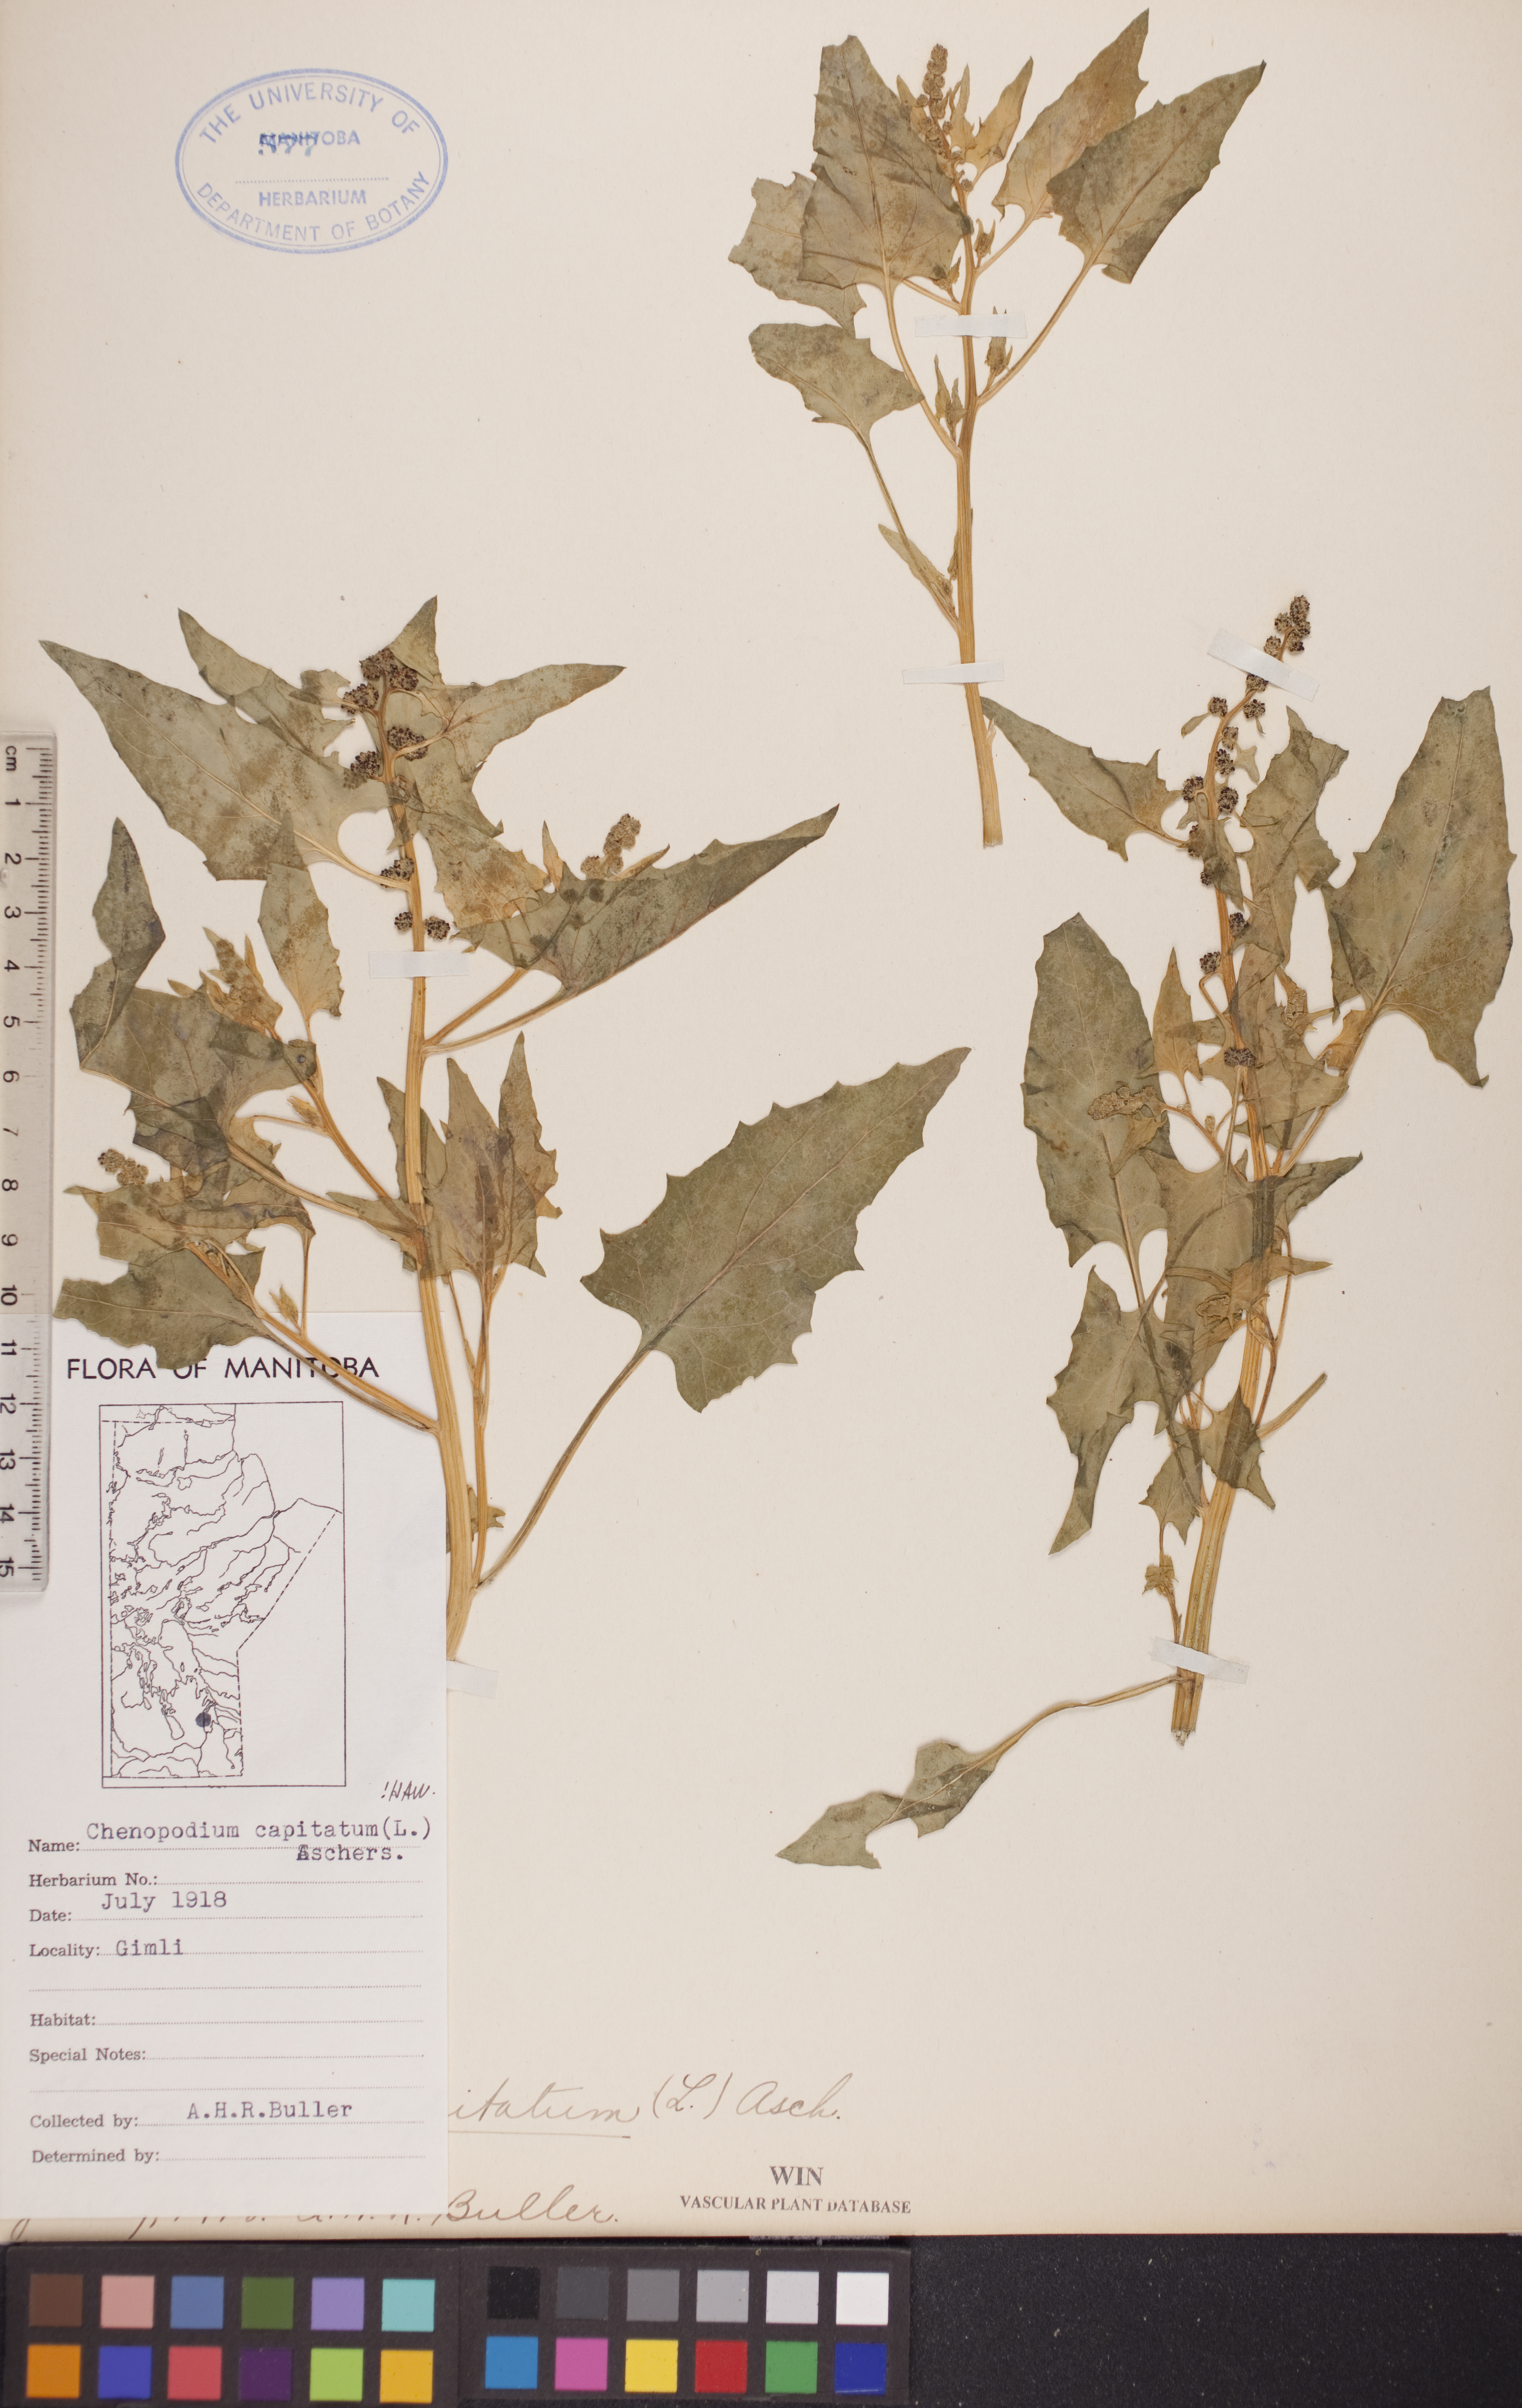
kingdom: Plantae
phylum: Tracheophyta
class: Magnoliopsida
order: Caryophyllales
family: Amaranthaceae
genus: Blitum
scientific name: Blitum capitatum
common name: Strawberry-blight
